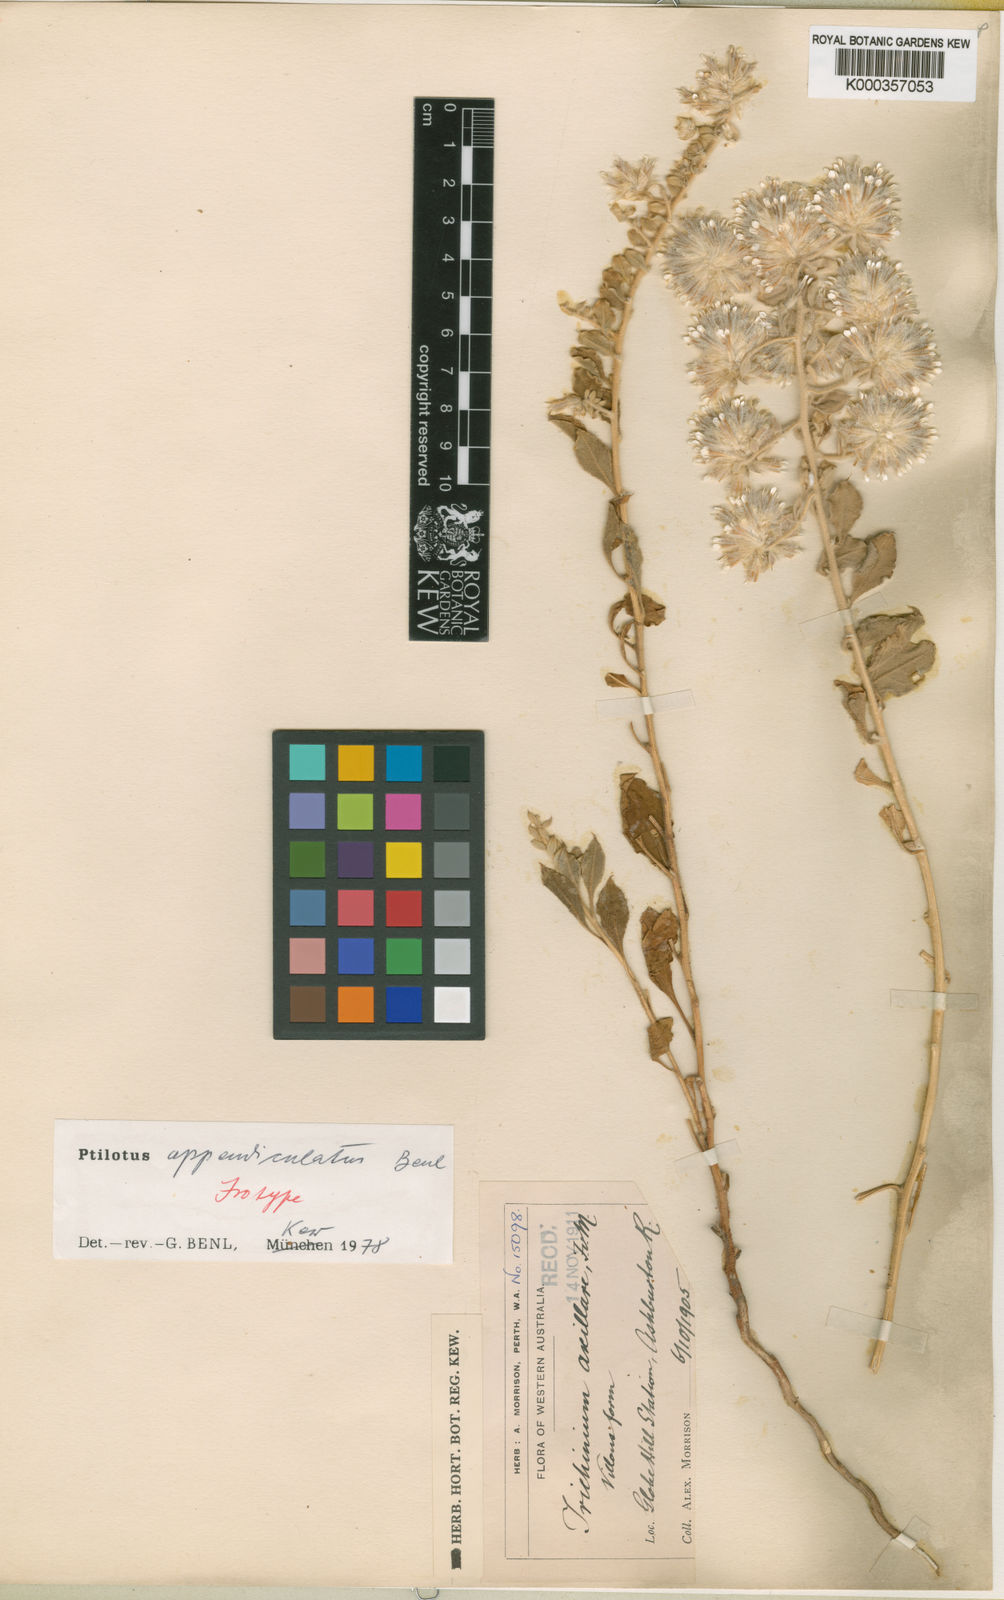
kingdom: Plantae
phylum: Tracheophyta
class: Magnoliopsida
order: Caryophyllales
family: Amaranthaceae
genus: Ptilotus
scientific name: Ptilotus axillaris
